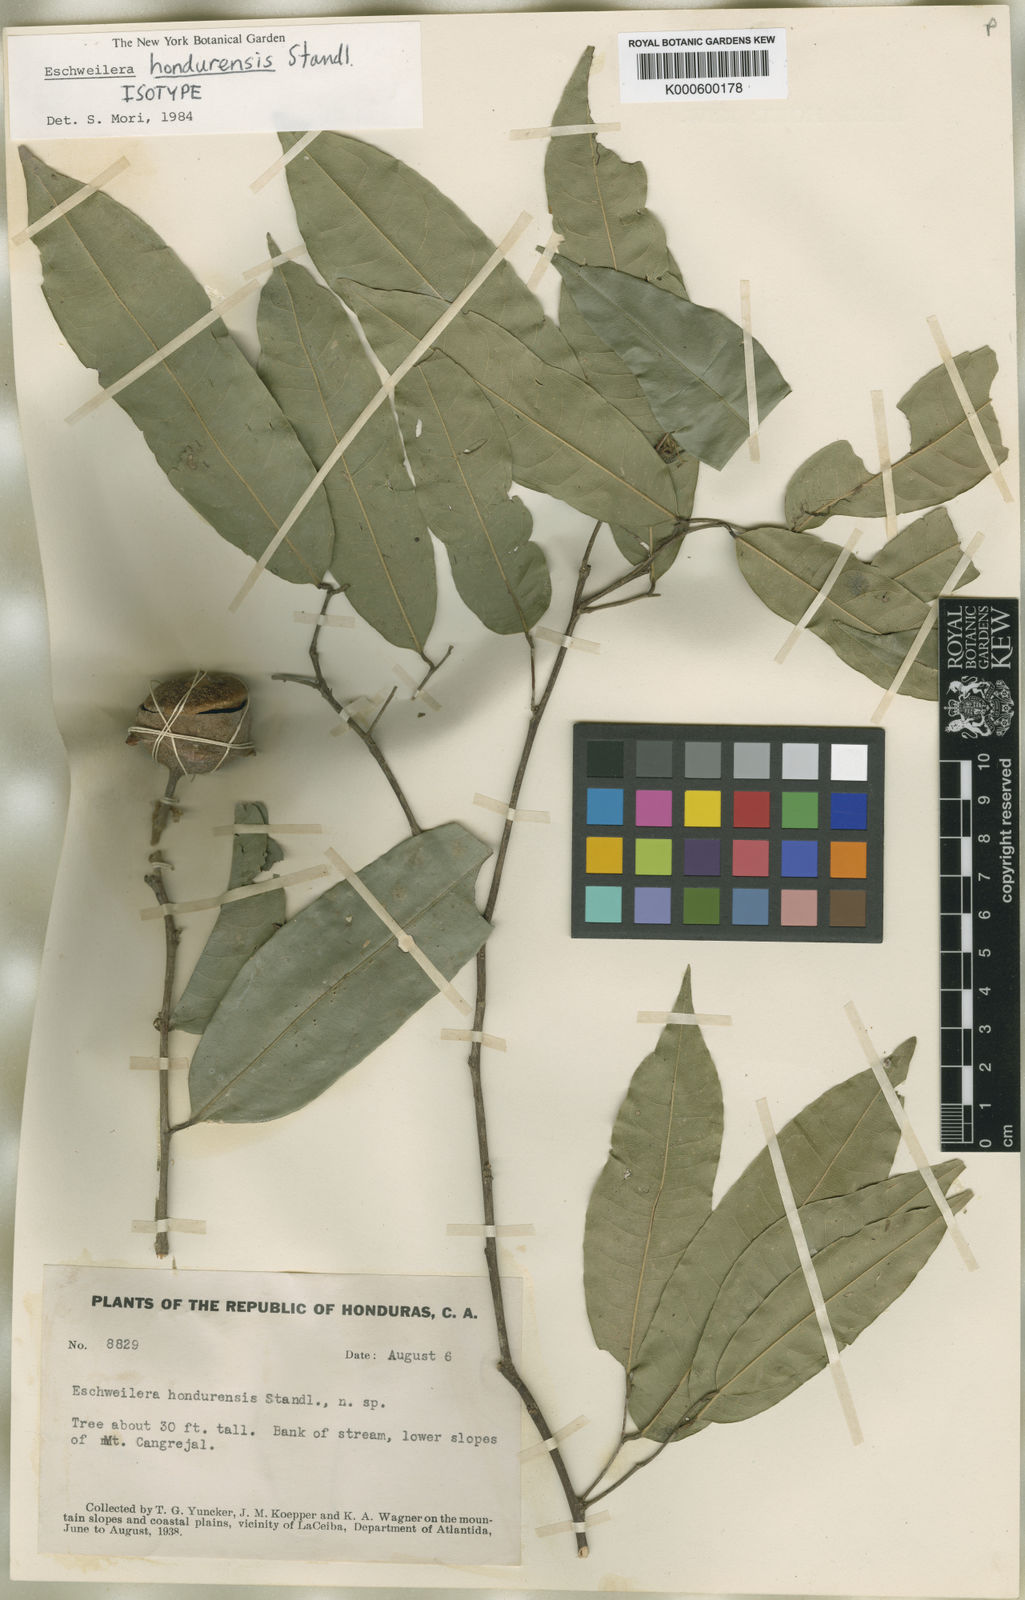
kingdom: Plantae
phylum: Tracheophyta
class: Magnoliopsida
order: Ericales
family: Lecythidaceae
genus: Eschweilera
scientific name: Eschweilera hondurensis
